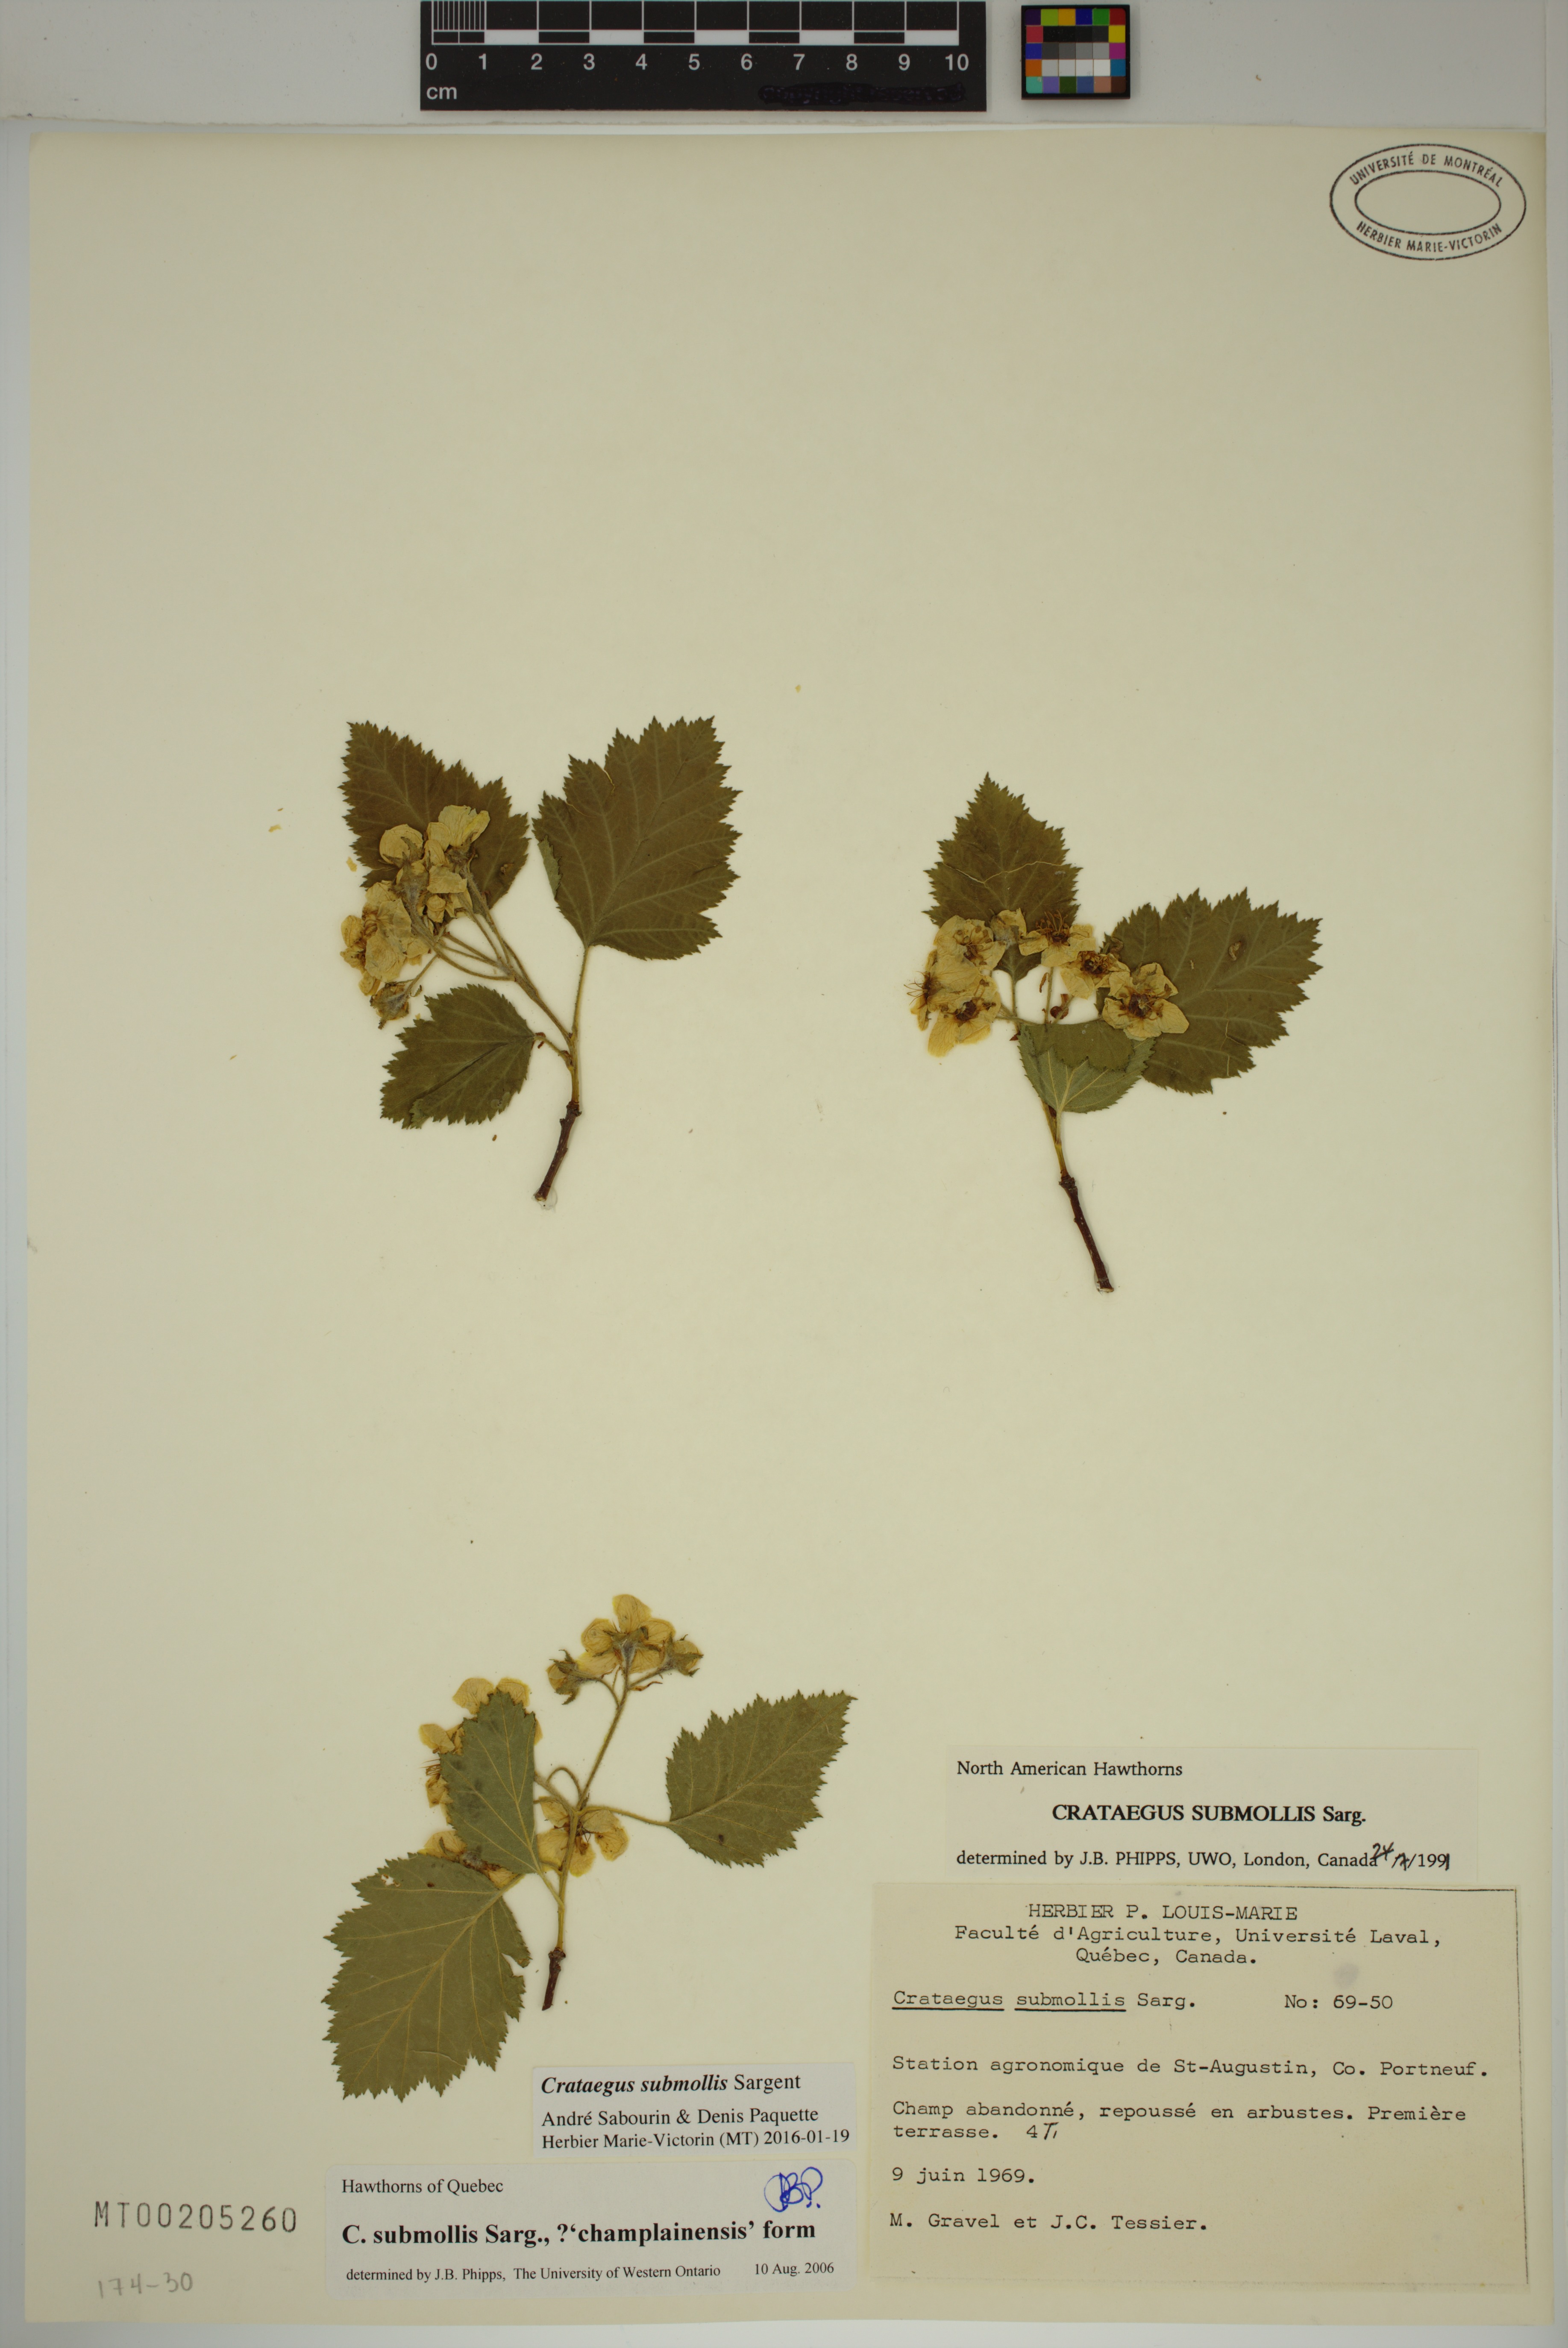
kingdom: Plantae
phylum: Tracheophyta
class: Magnoliopsida
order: Rosales
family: Rosaceae
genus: Crataegus
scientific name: Crataegus submollis
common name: Hairy cockspurthorn
